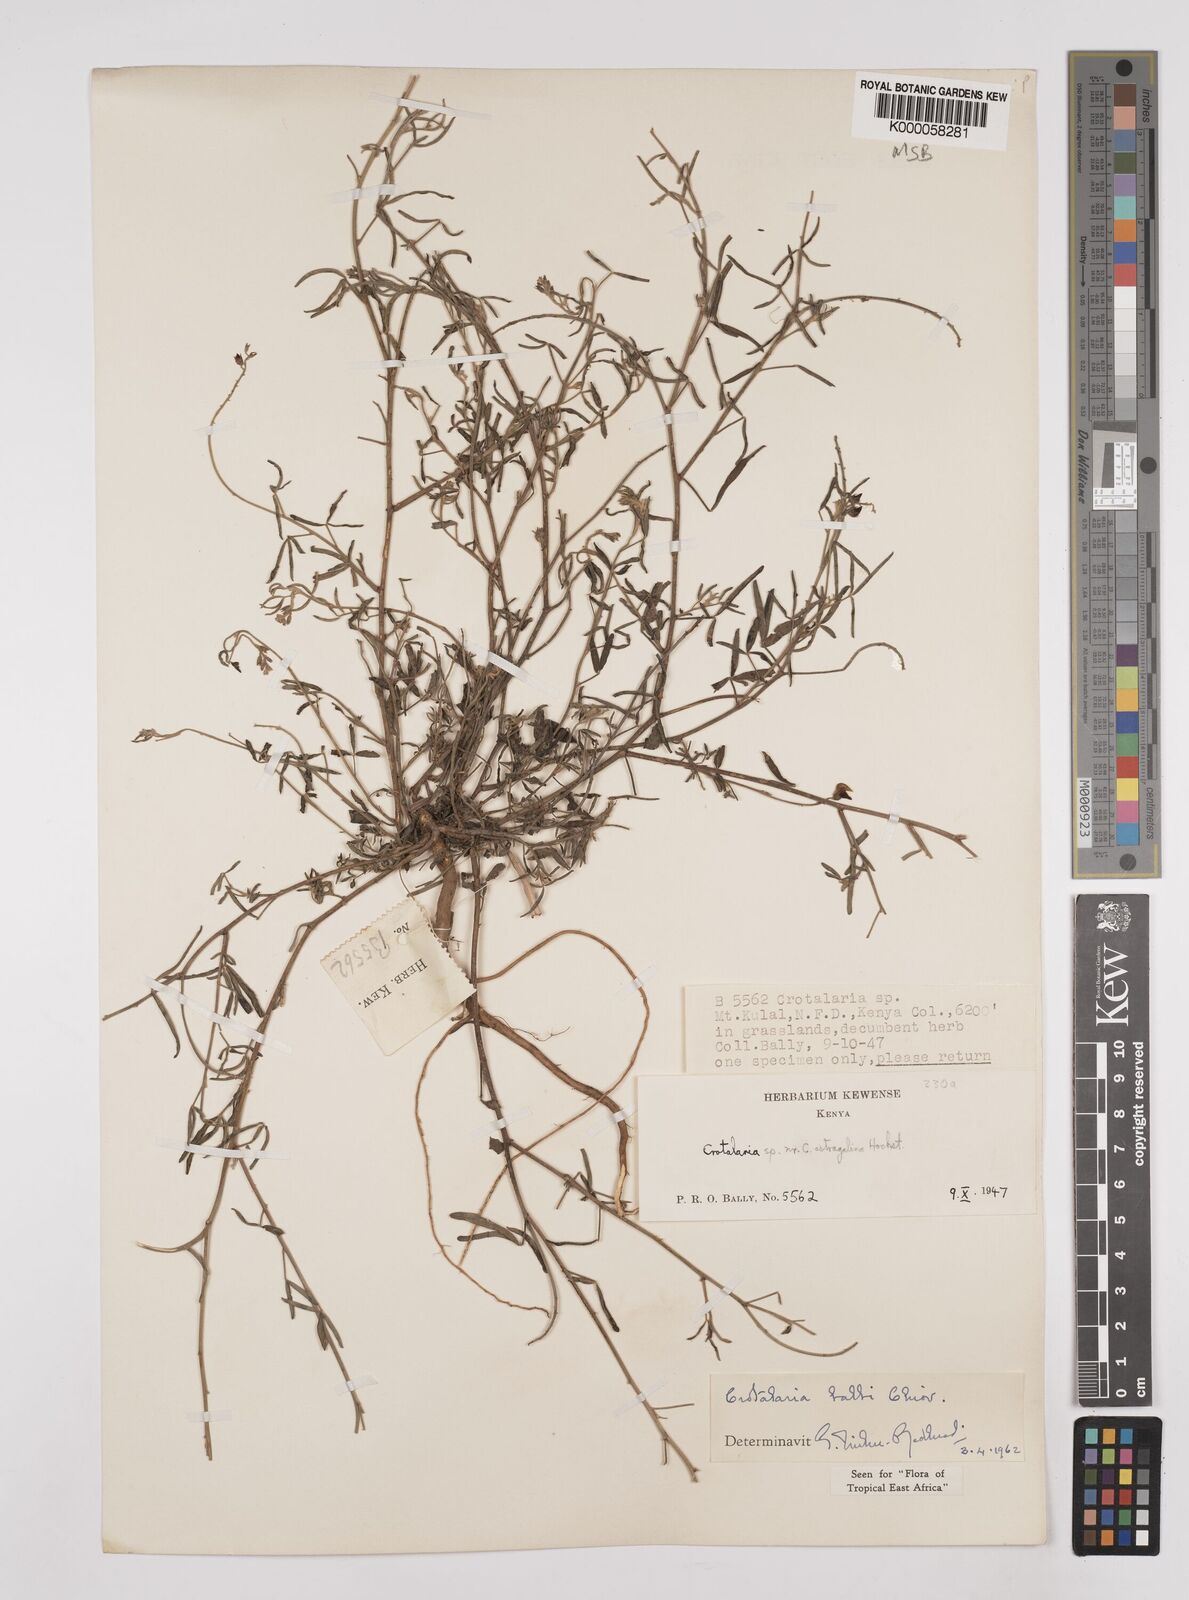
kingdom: Plantae
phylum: Tracheophyta
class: Magnoliopsida
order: Fabales
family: Fabaceae
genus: Crotalaria
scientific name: Crotalaria balbi
